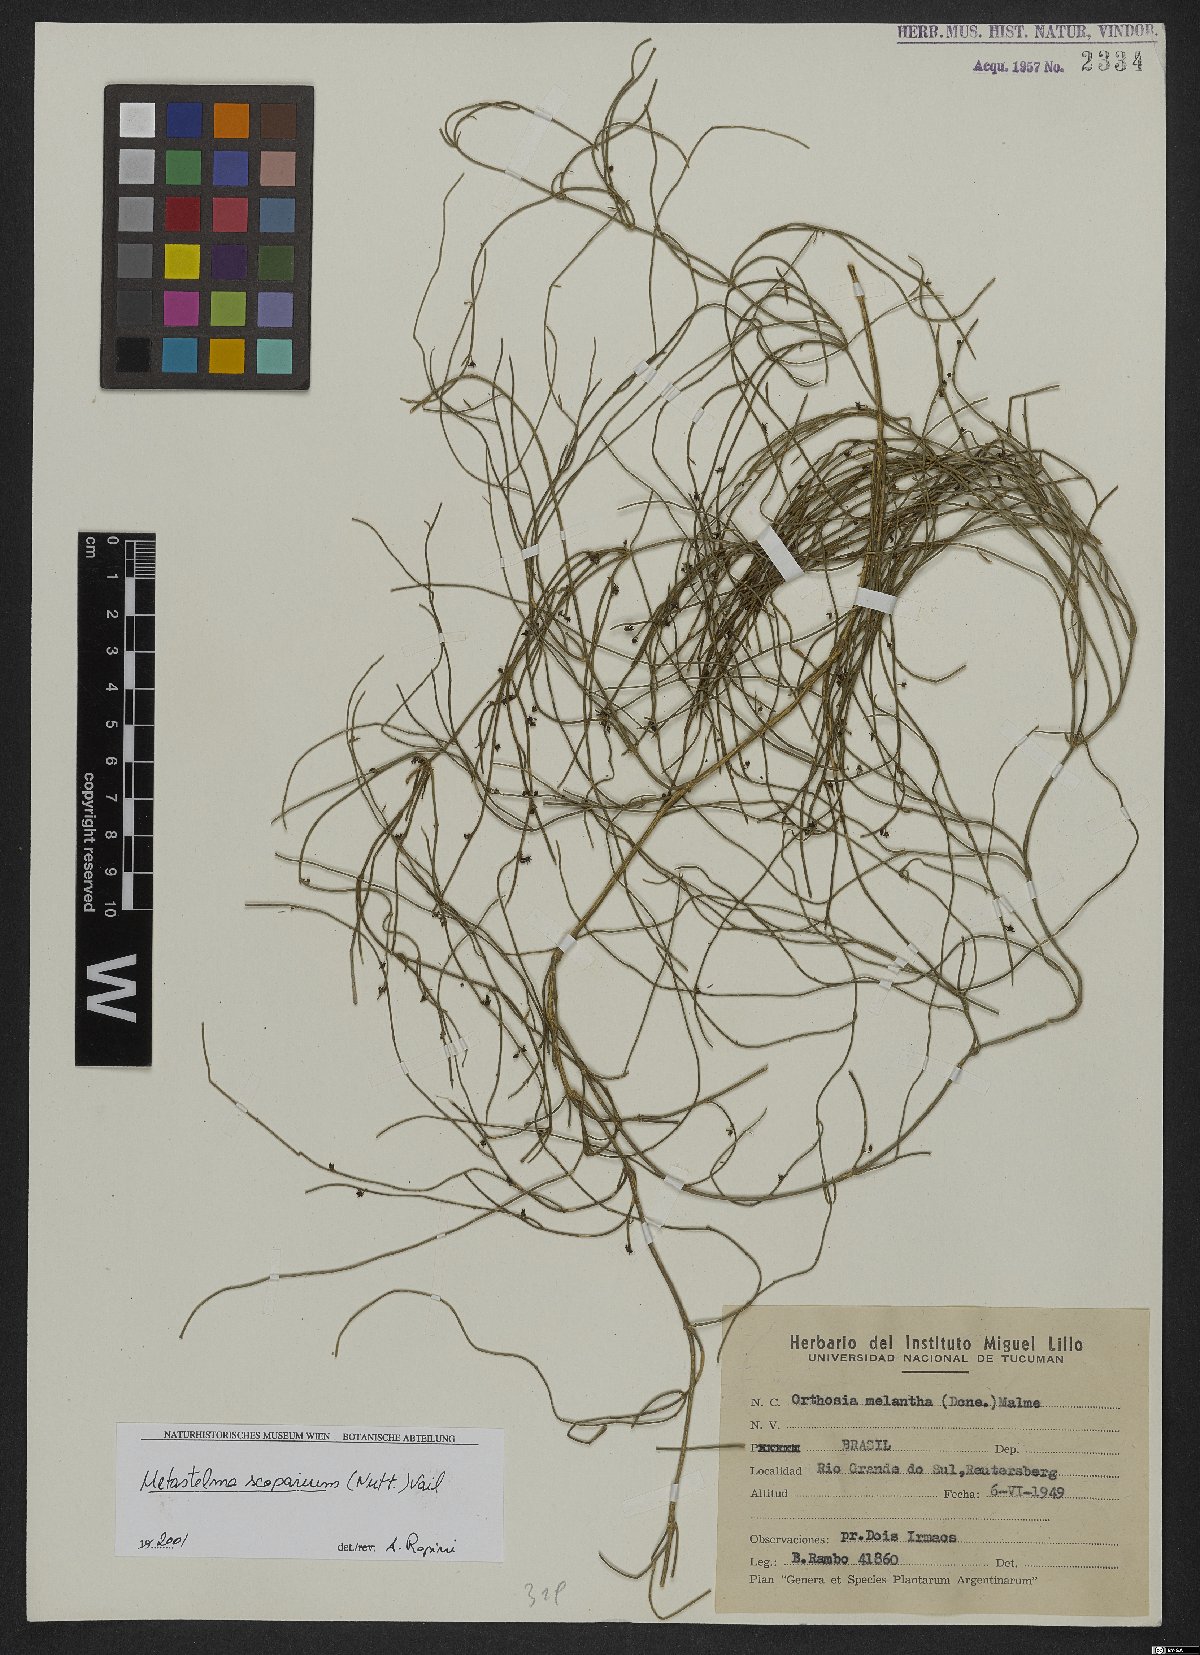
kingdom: Plantae
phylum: Tracheophyta
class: Magnoliopsida
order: Gentianales
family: Apocynaceae
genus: Orthosia
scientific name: Orthosia scoparia
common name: Leafless swallow-wort
